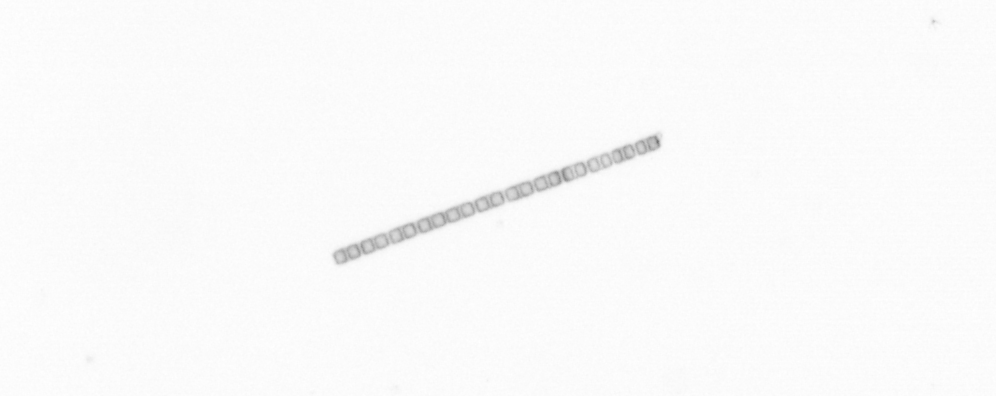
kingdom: Chromista
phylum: Ochrophyta
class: Bacillariophyceae
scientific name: Bacillariophyceae
